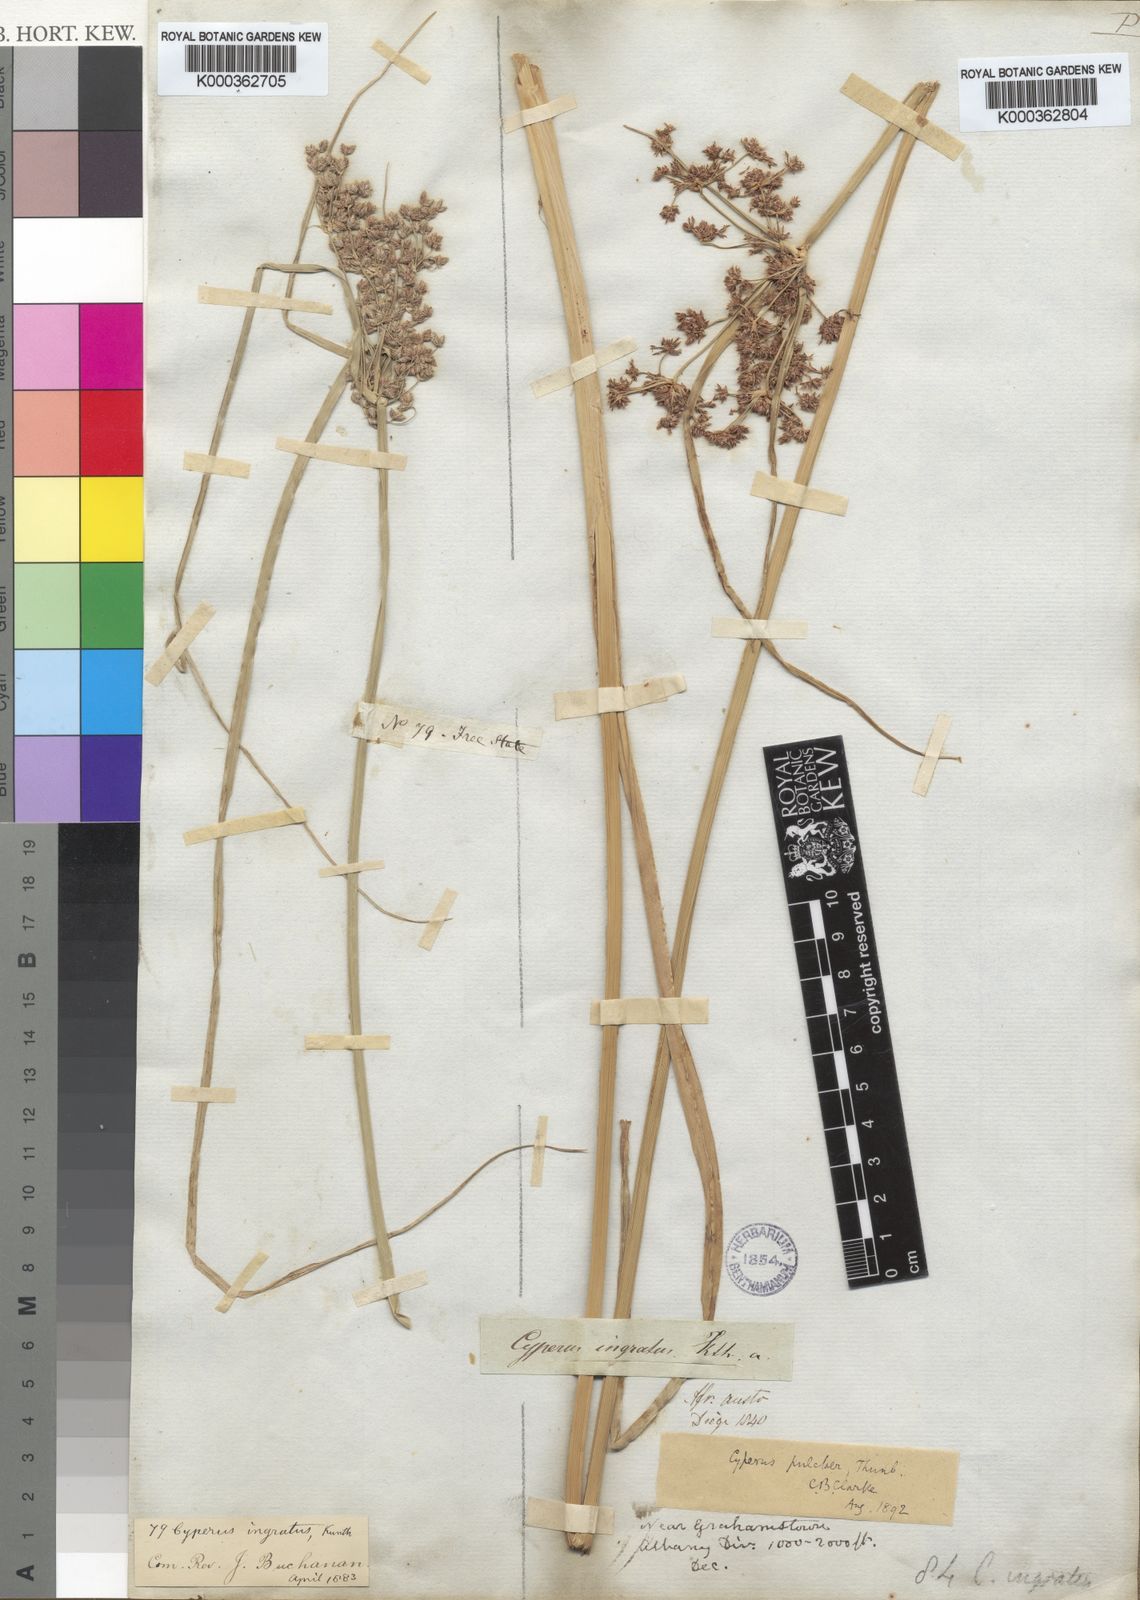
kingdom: Plantae
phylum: Tracheophyta
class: Liliopsida
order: Poales
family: Cyperaceae
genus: Cyperus
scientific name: Cyperus pulcher
